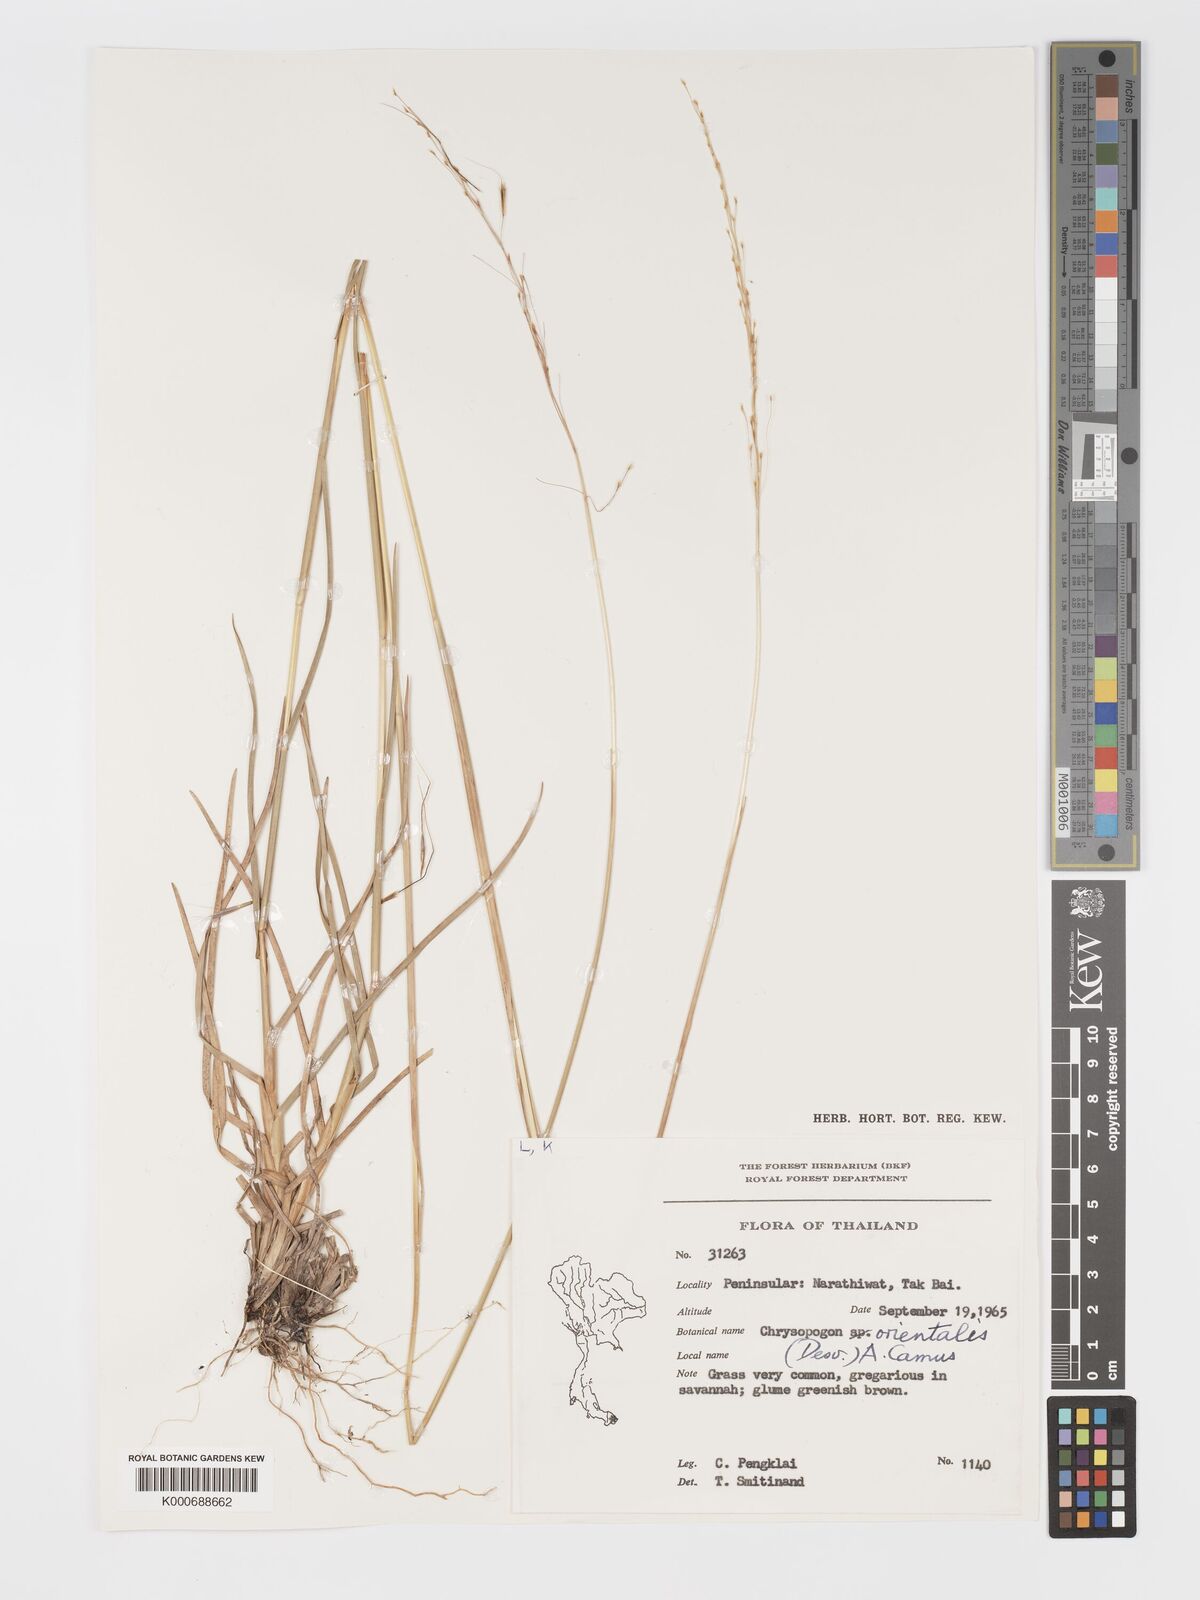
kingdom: Plantae
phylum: Tracheophyta
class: Liliopsida
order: Poales
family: Poaceae
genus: Chrysopogon
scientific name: Chrysopogon orientalis
